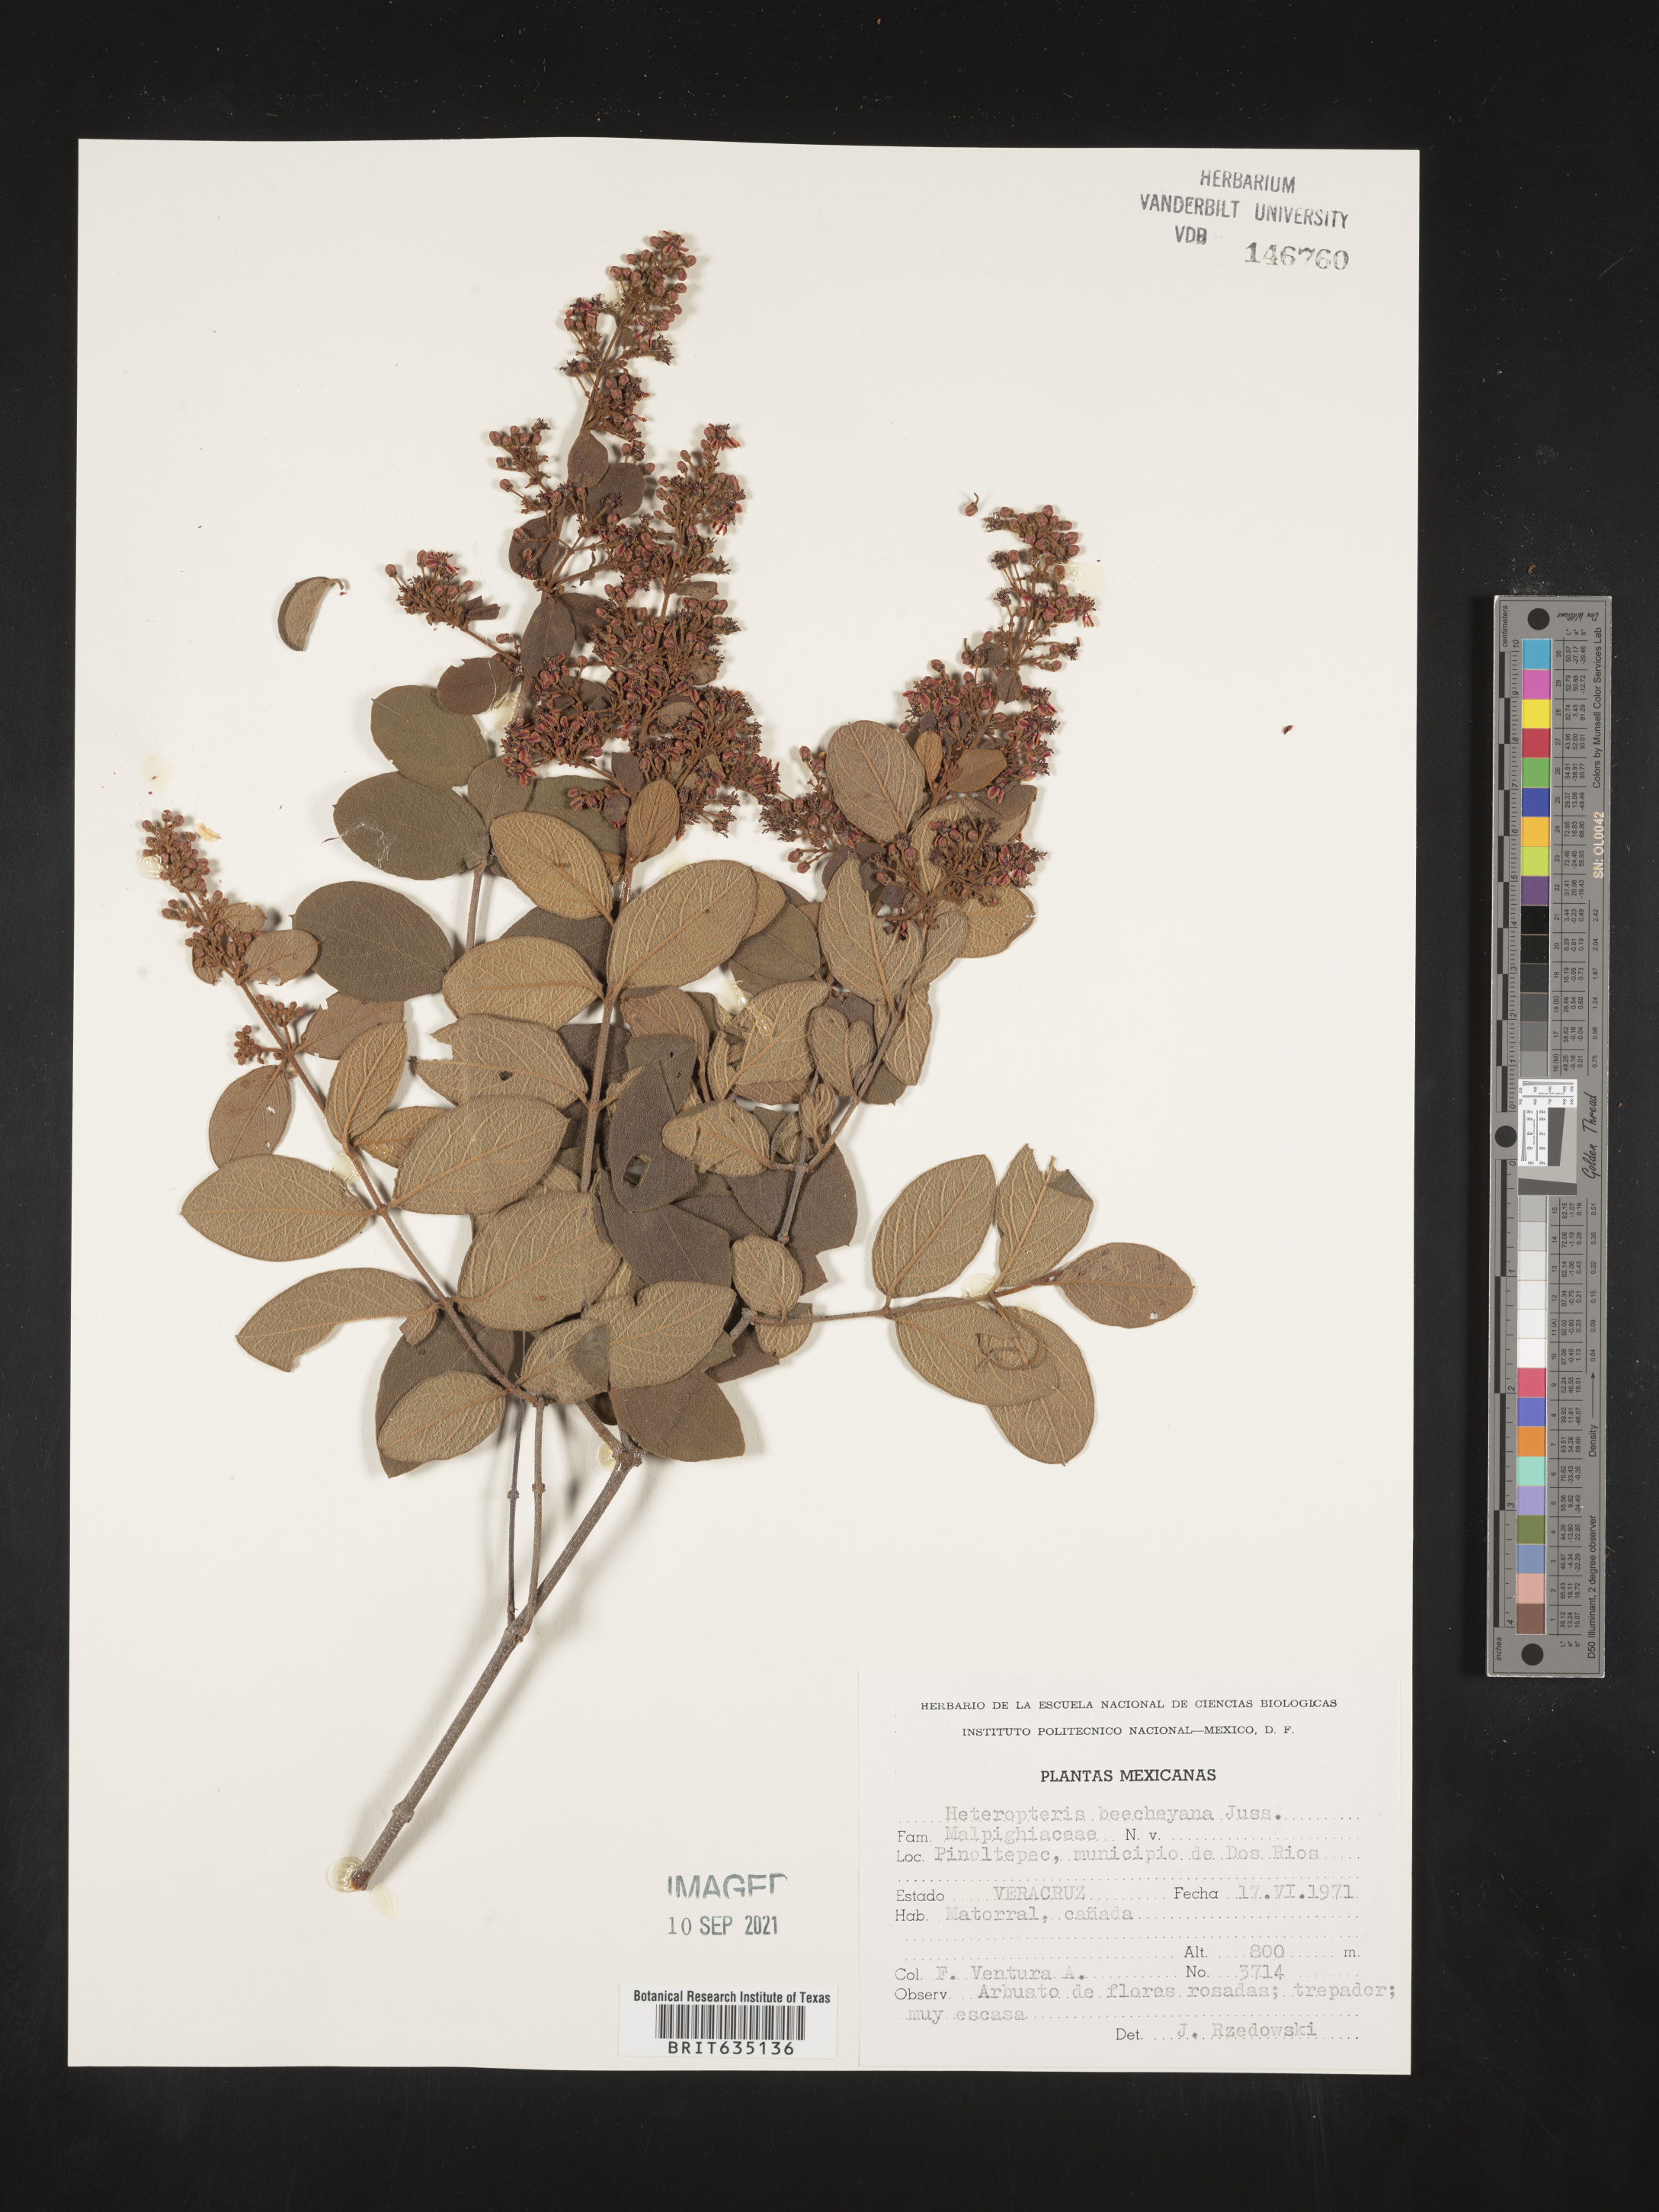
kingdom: Plantae
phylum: Tracheophyta
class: Polypodiopsida
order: Polypodiales
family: Pteridaceae
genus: Heteropteris
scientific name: Heteropteris
